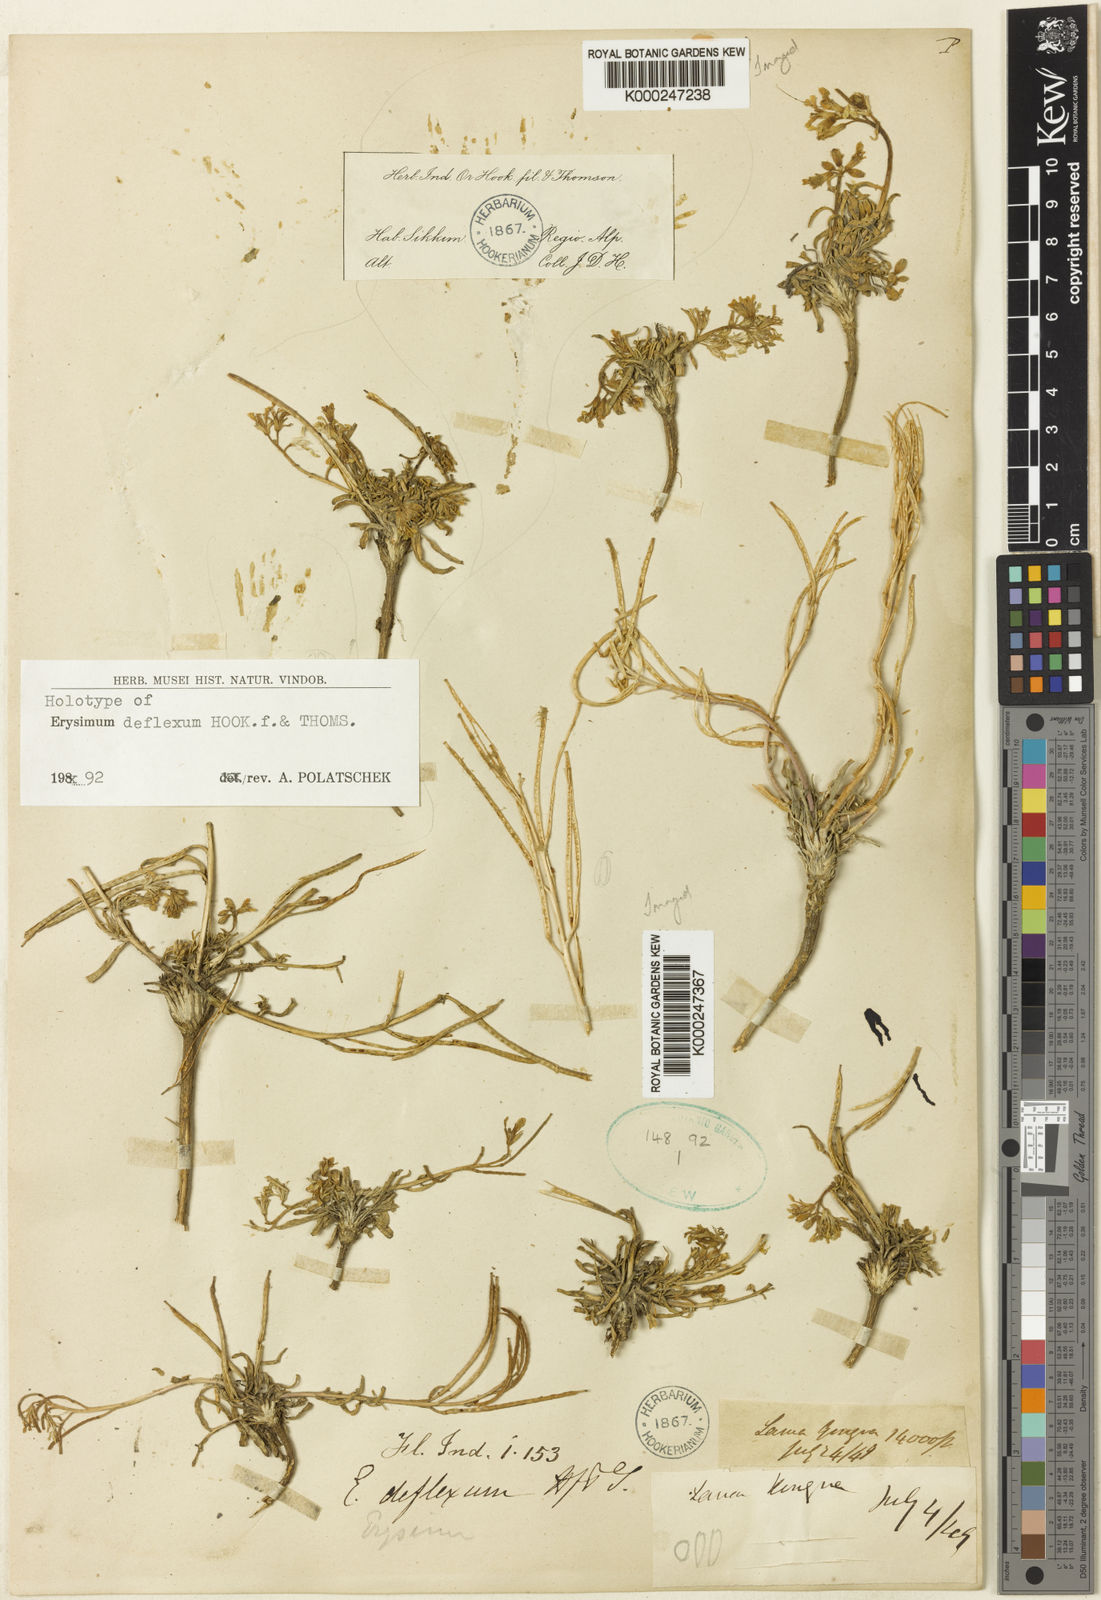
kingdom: Plantae
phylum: Tracheophyta
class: Magnoliopsida
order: Brassicales
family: Brassicaceae
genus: Erysimum
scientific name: Erysimum deflexum
